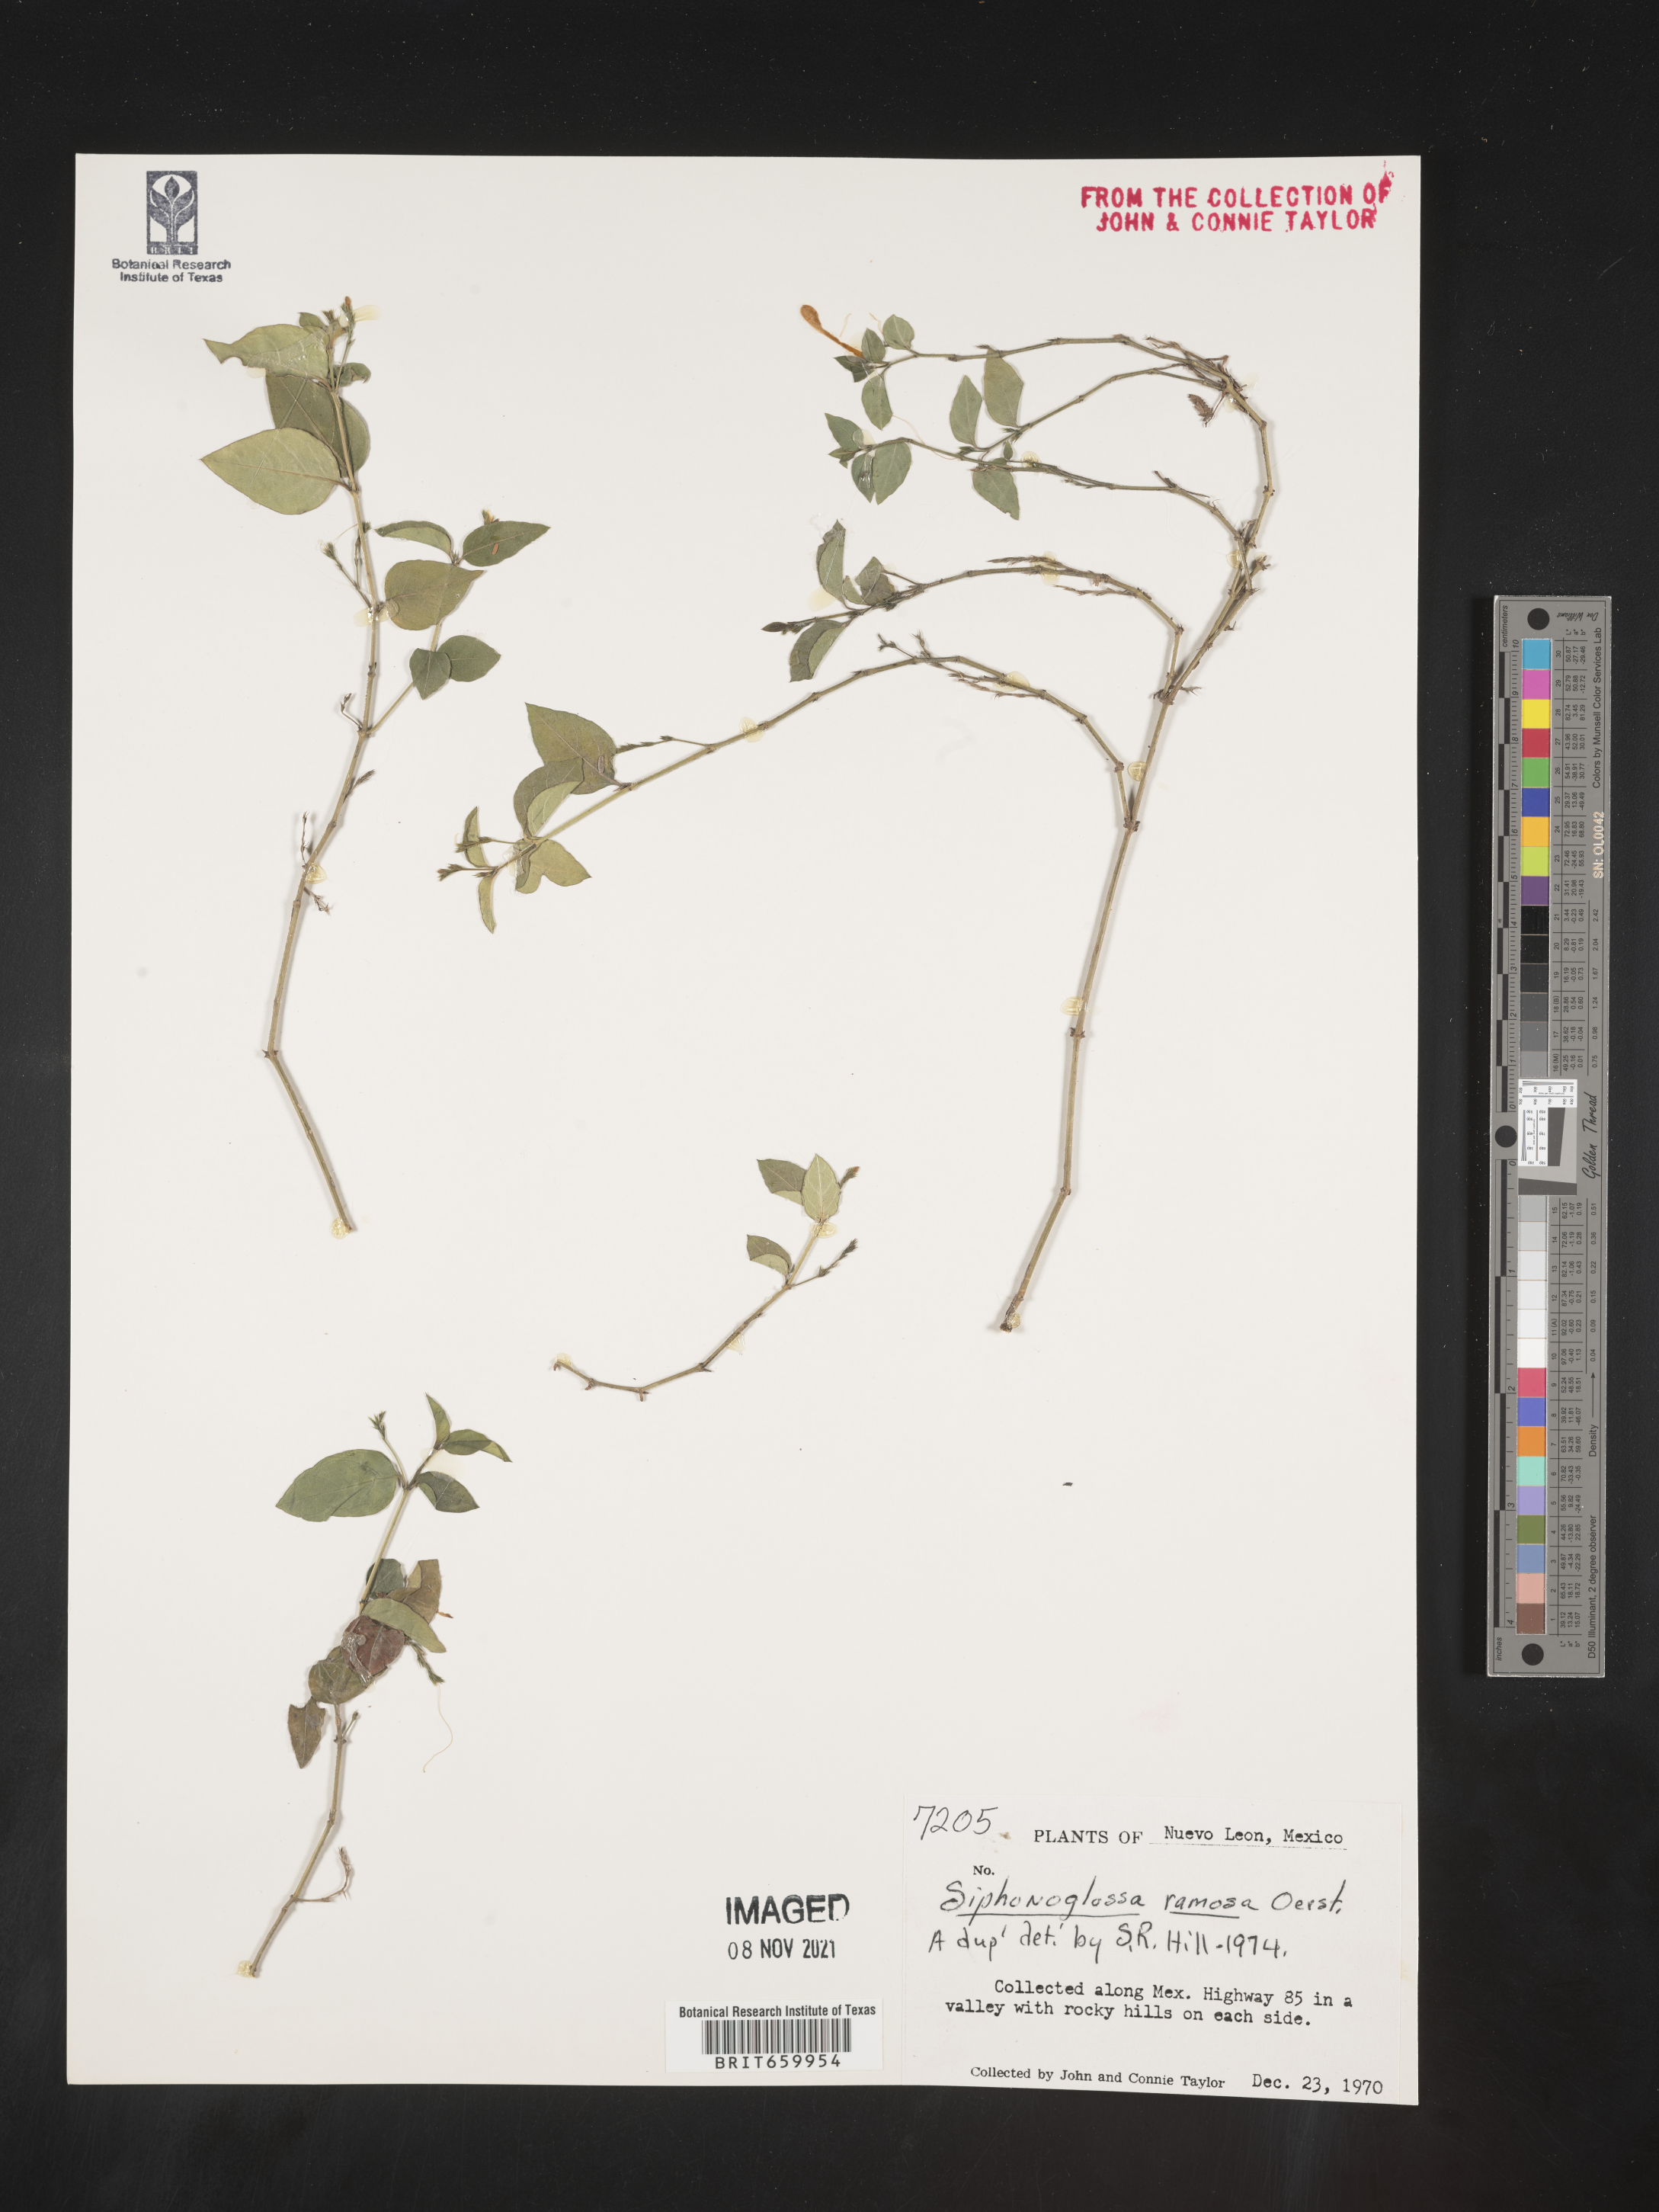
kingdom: Plantae
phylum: Tracheophyta
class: Magnoliopsida
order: Lamiales
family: Acanthaceae
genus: Justicia
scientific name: Justicia
